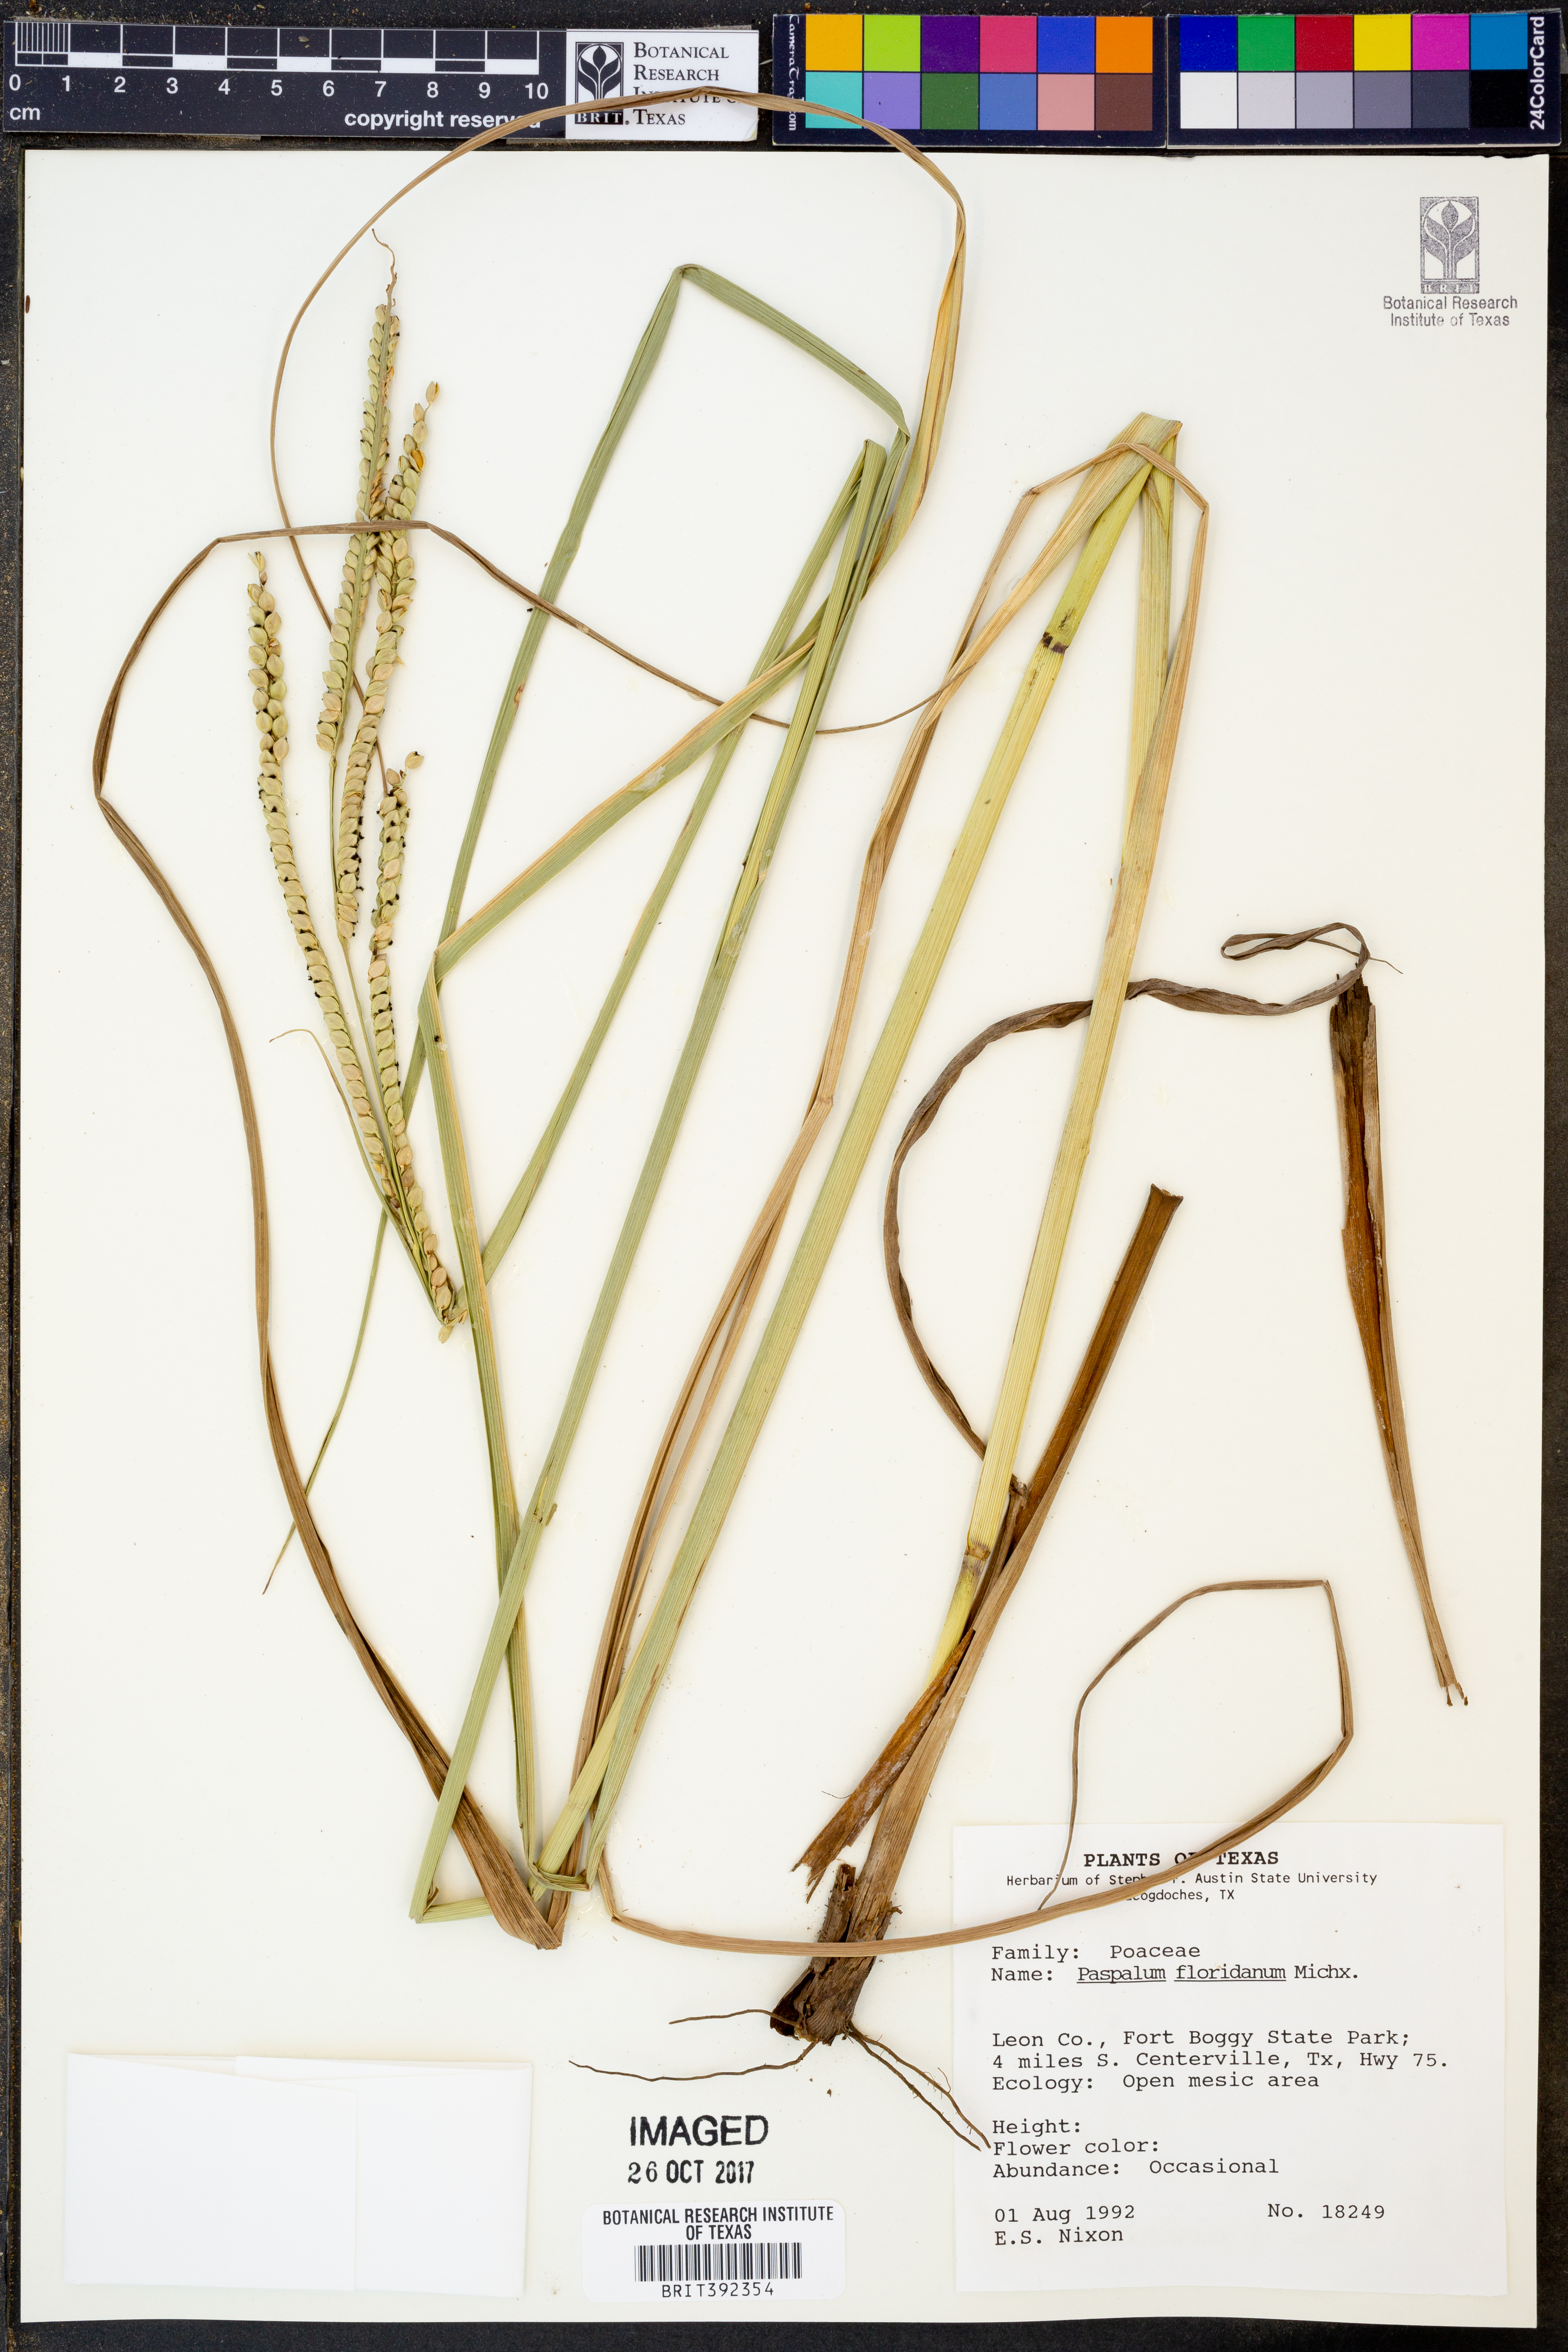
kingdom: Plantae
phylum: Tracheophyta
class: Liliopsida
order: Poales
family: Poaceae
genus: Paspalum
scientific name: Paspalum floridanum
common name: Florida paspalum
